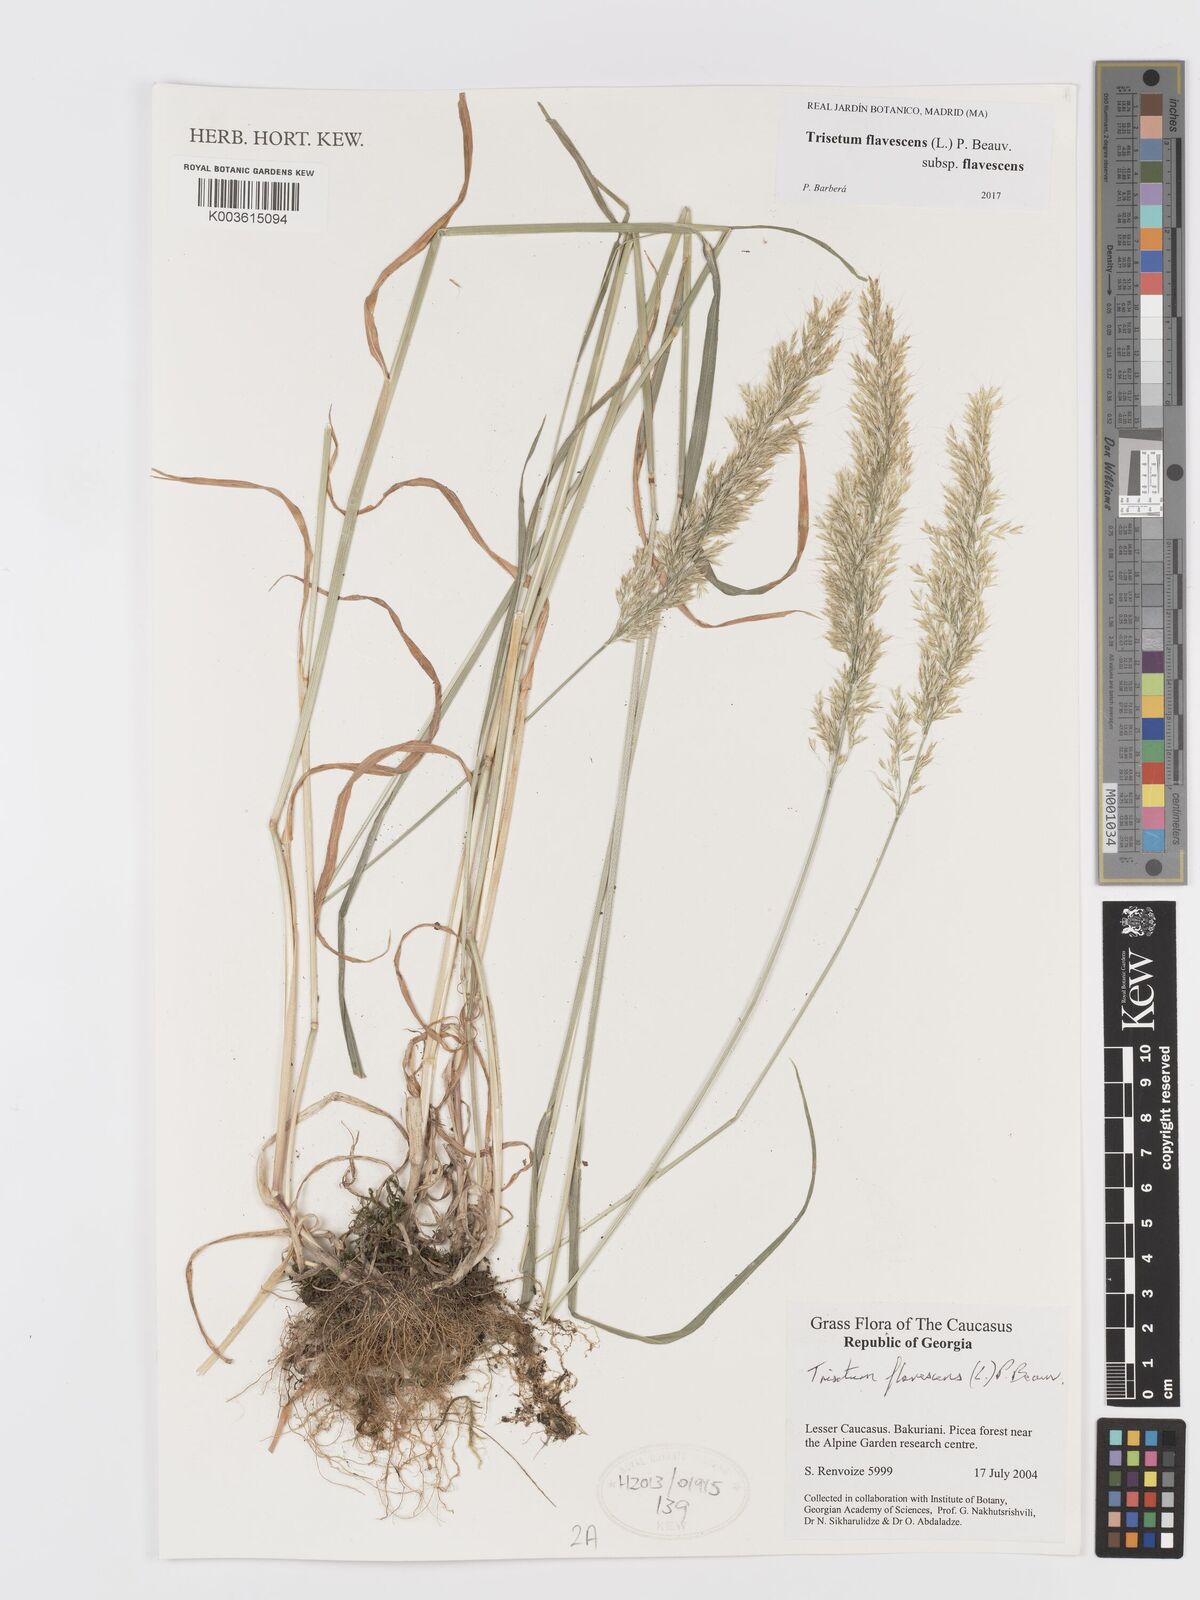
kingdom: Plantae
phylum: Tracheophyta
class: Liliopsida
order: Poales
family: Poaceae
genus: Trisetum
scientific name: Trisetum flavescens
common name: Yellow oat-grass
